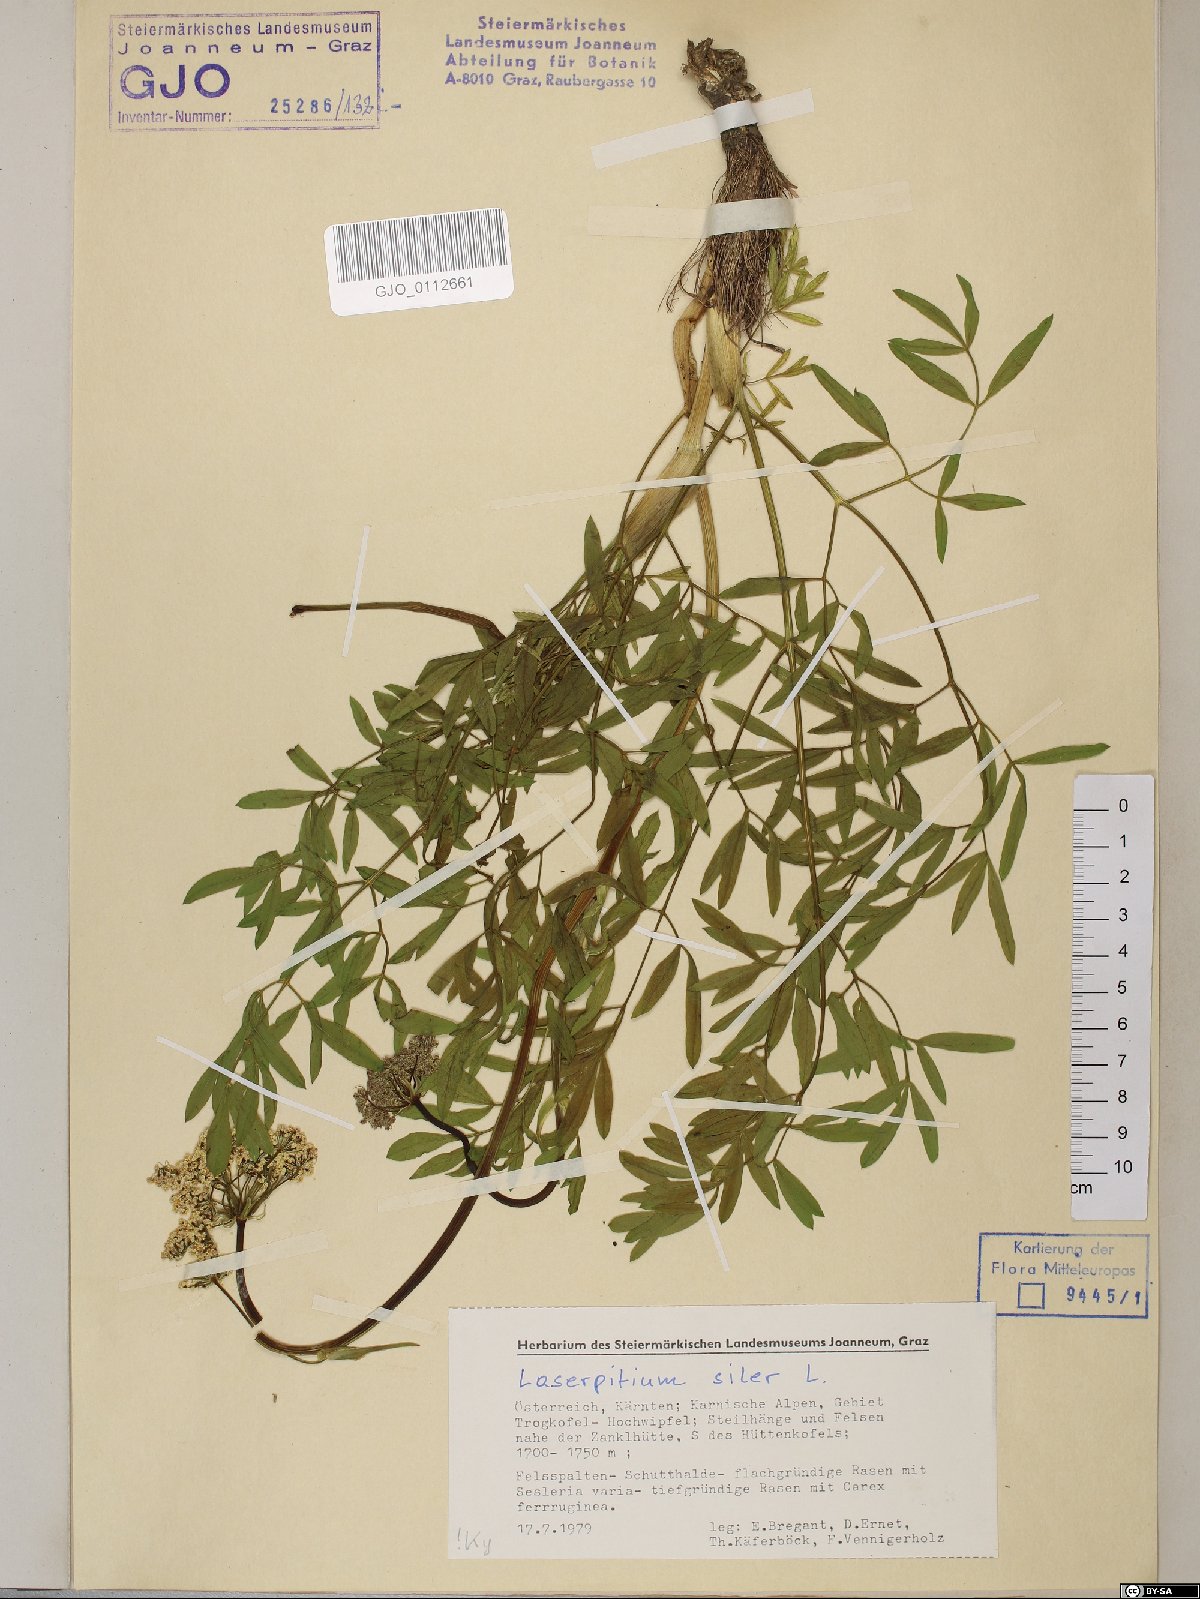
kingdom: Plantae
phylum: Tracheophyta
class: Magnoliopsida
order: Apiales
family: Apiaceae
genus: Siler
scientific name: Siler montanum
